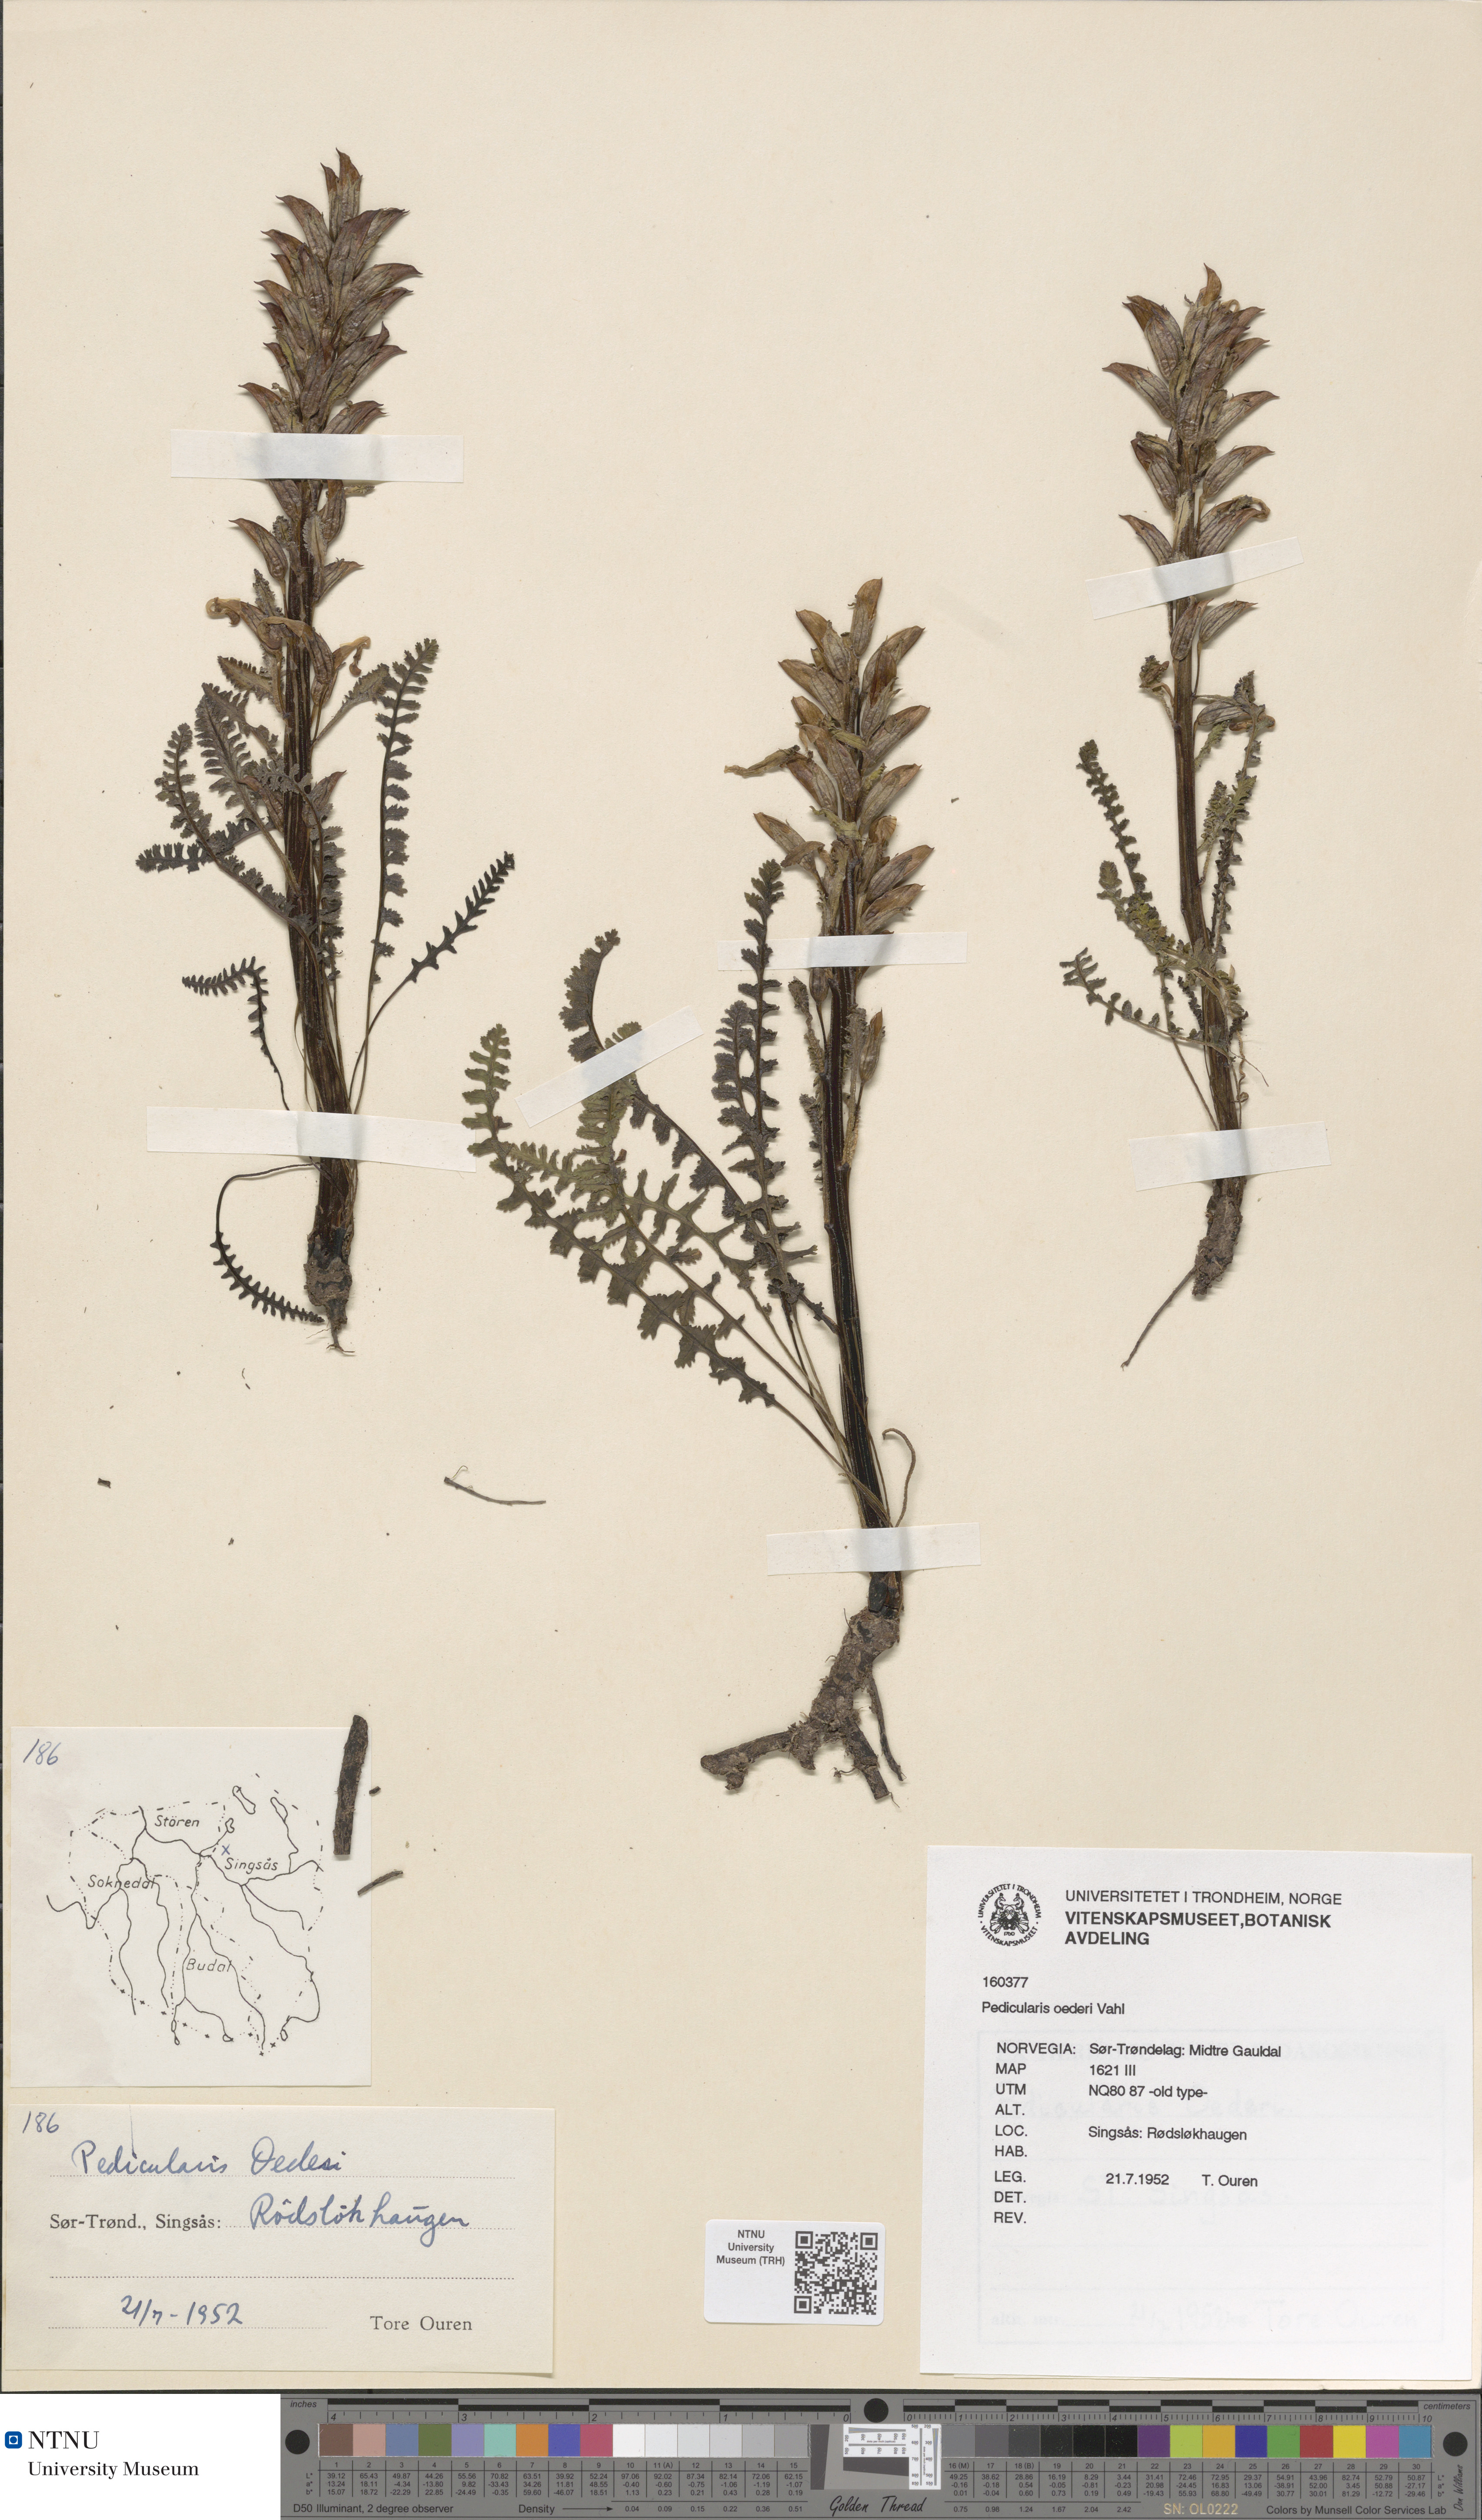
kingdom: Plantae
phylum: Tracheophyta
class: Magnoliopsida
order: Lamiales
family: Orobanchaceae
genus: Pedicularis
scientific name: Pedicularis oederi
